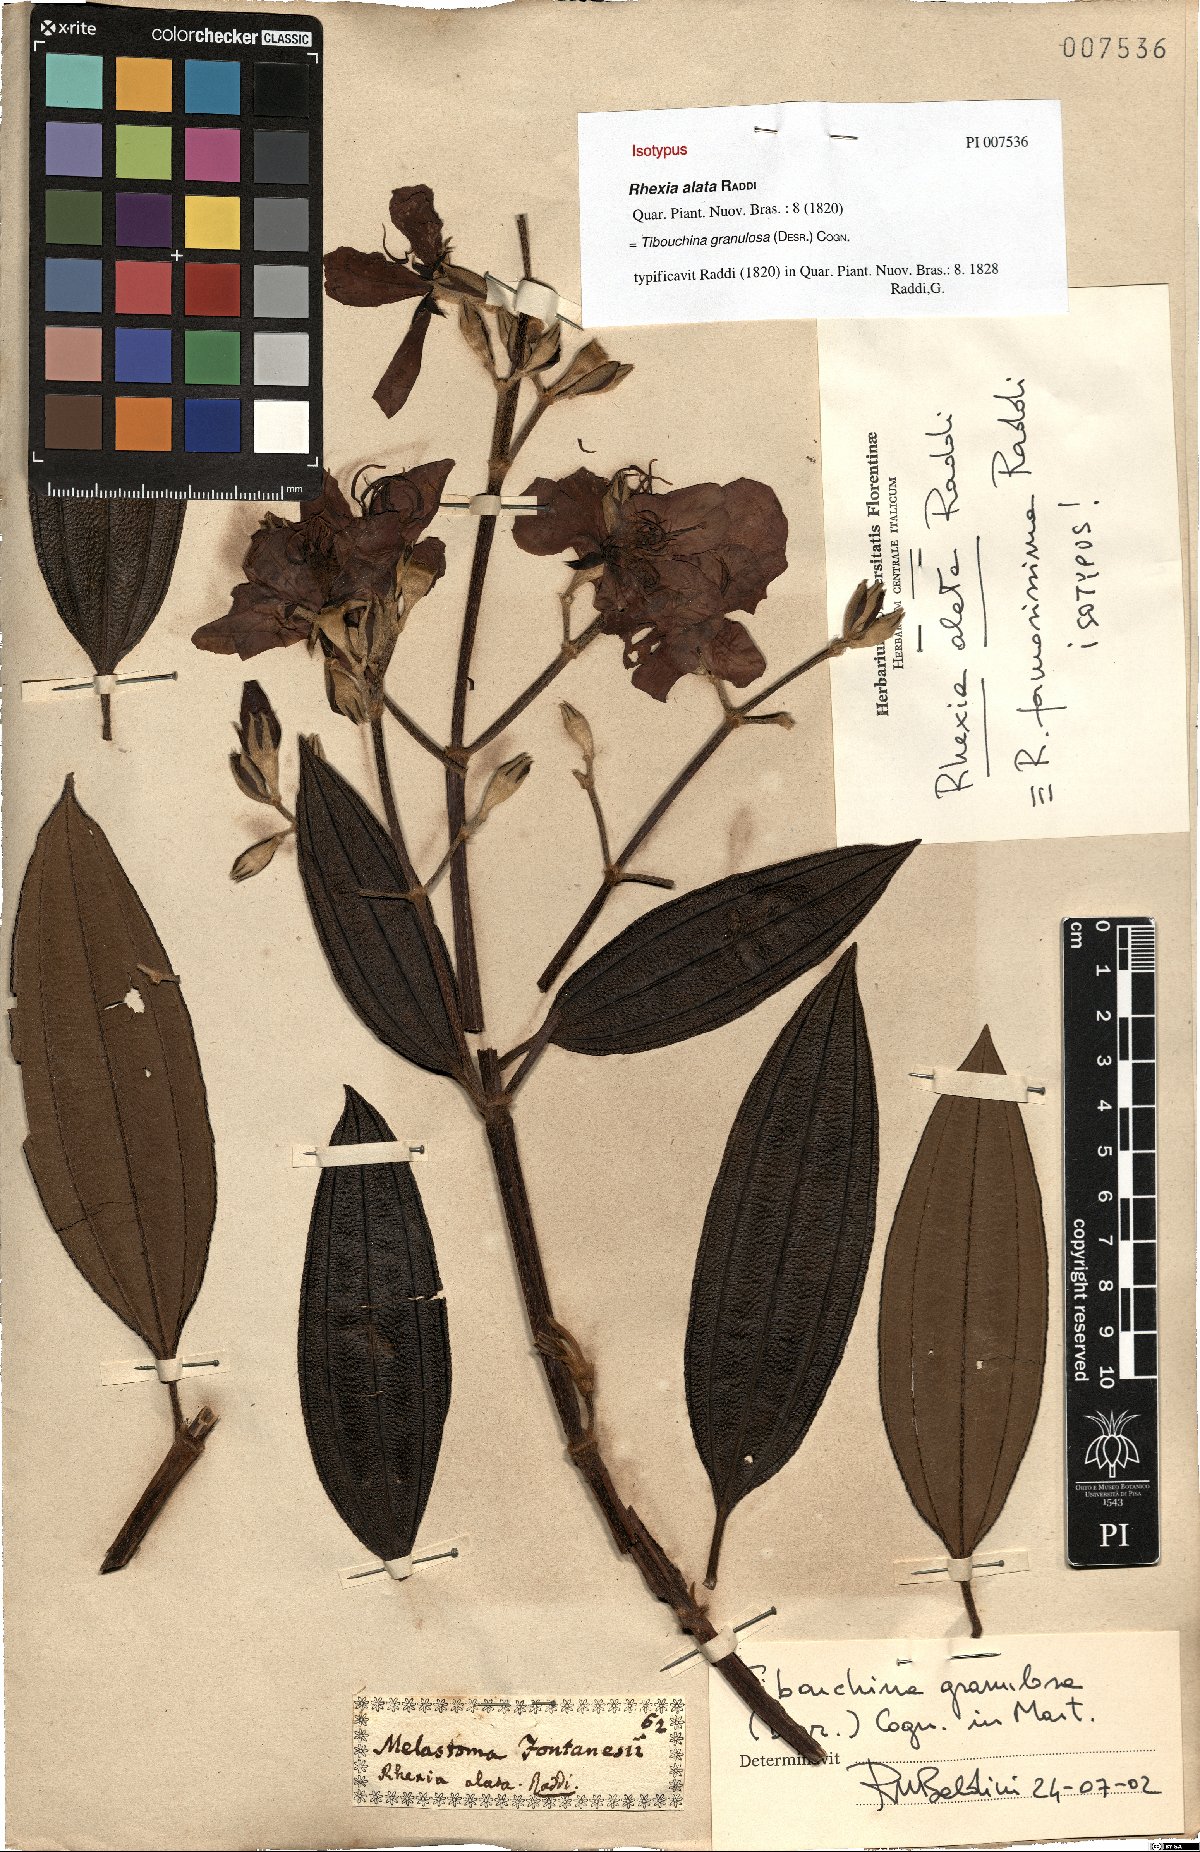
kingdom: Plantae
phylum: Tracheophyta
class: Magnoliopsida
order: Myrtales
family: Melastomataceae
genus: Pleroma
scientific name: Pleroma granulosum
